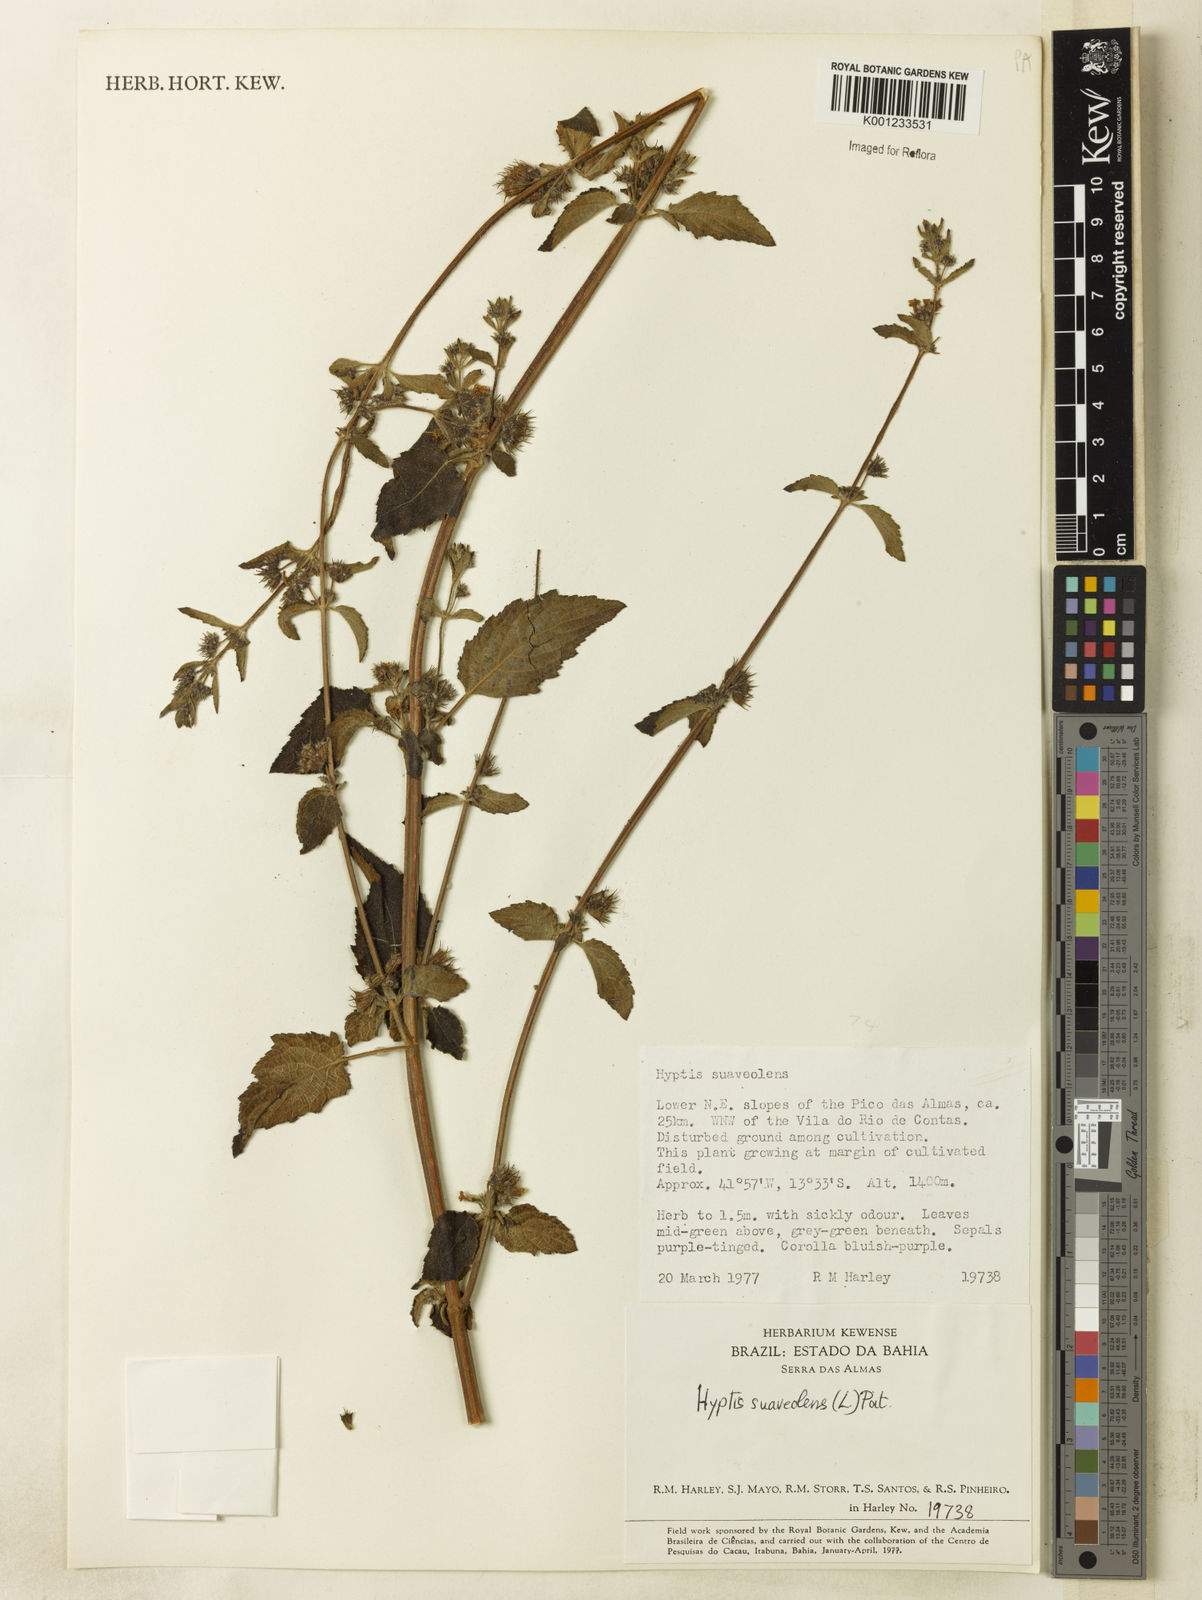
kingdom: Plantae
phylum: Tracheophyta
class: Magnoliopsida
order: Lamiales
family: Lamiaceae
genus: Mesosphaerum
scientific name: Mesosphaerum suaveolens
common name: Pignut
